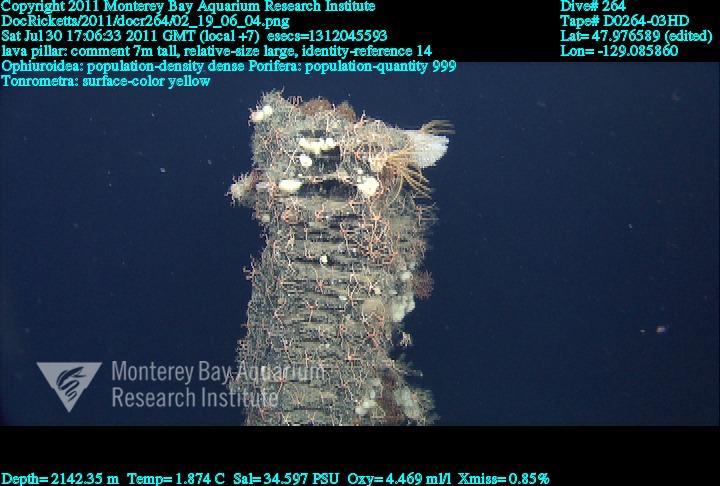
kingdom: Animalia
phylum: Porifera
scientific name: Porifera
